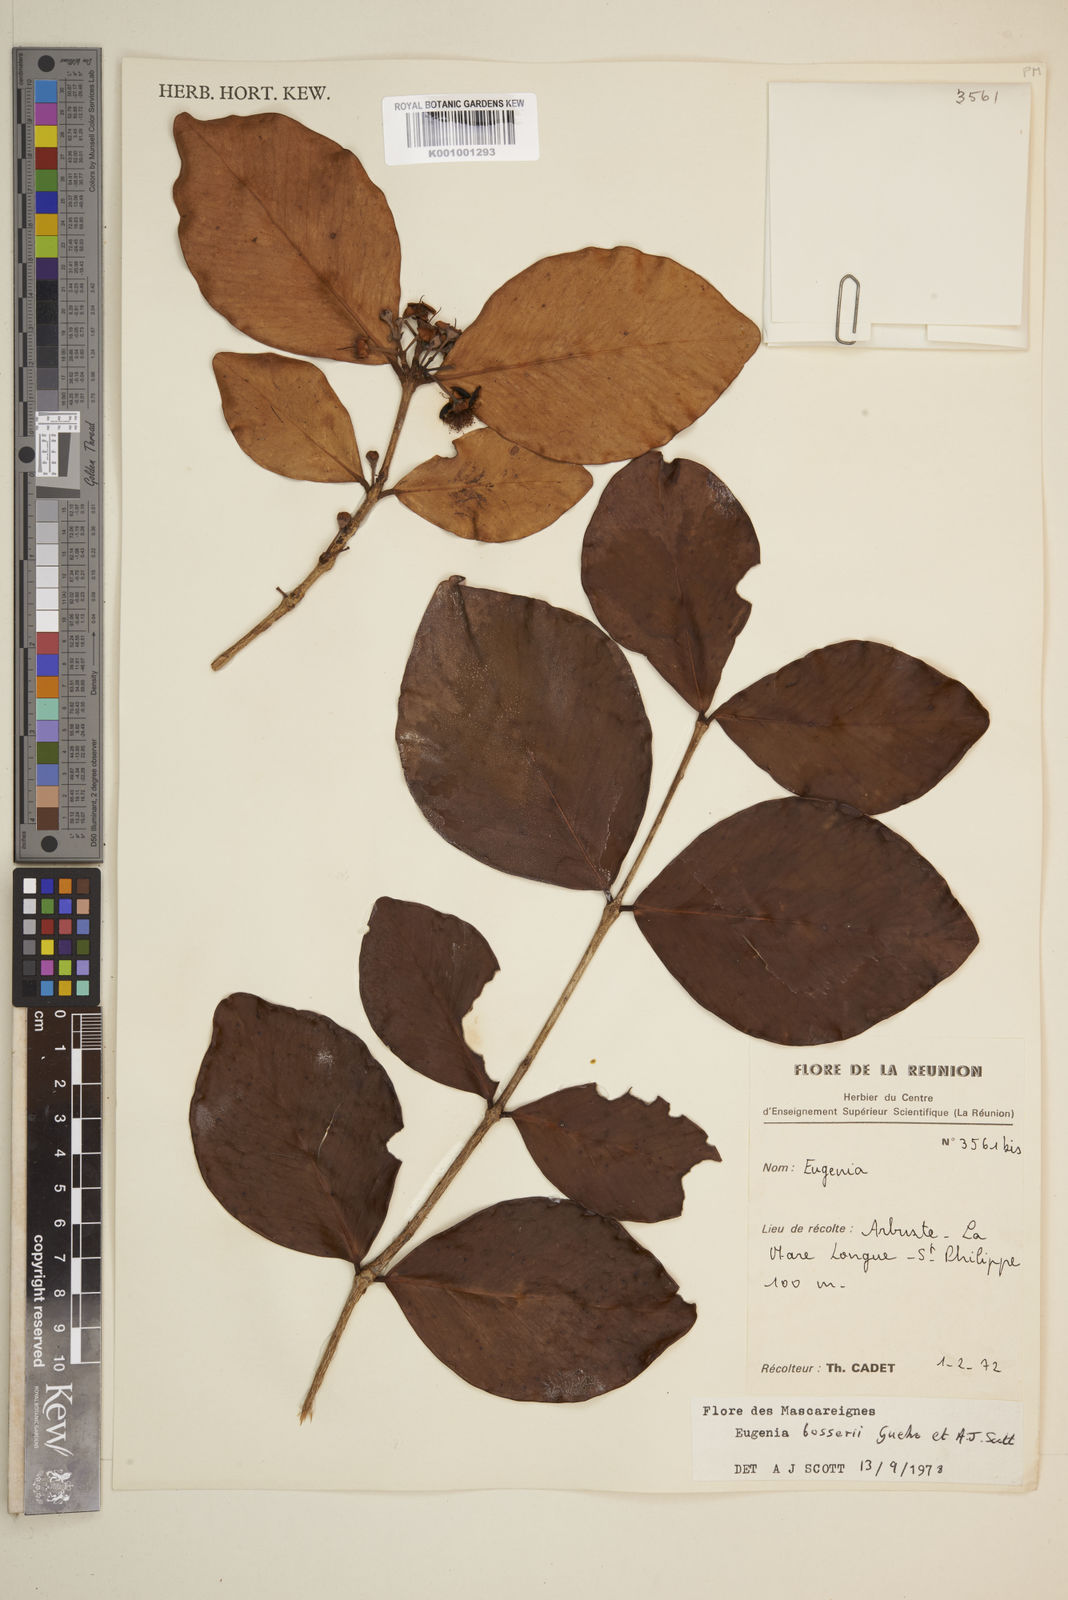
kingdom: Plantae
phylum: Tracheophyta
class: Magnoliopsida
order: Myrtales
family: Myrtaceae
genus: Eugenia
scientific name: Eugenia
